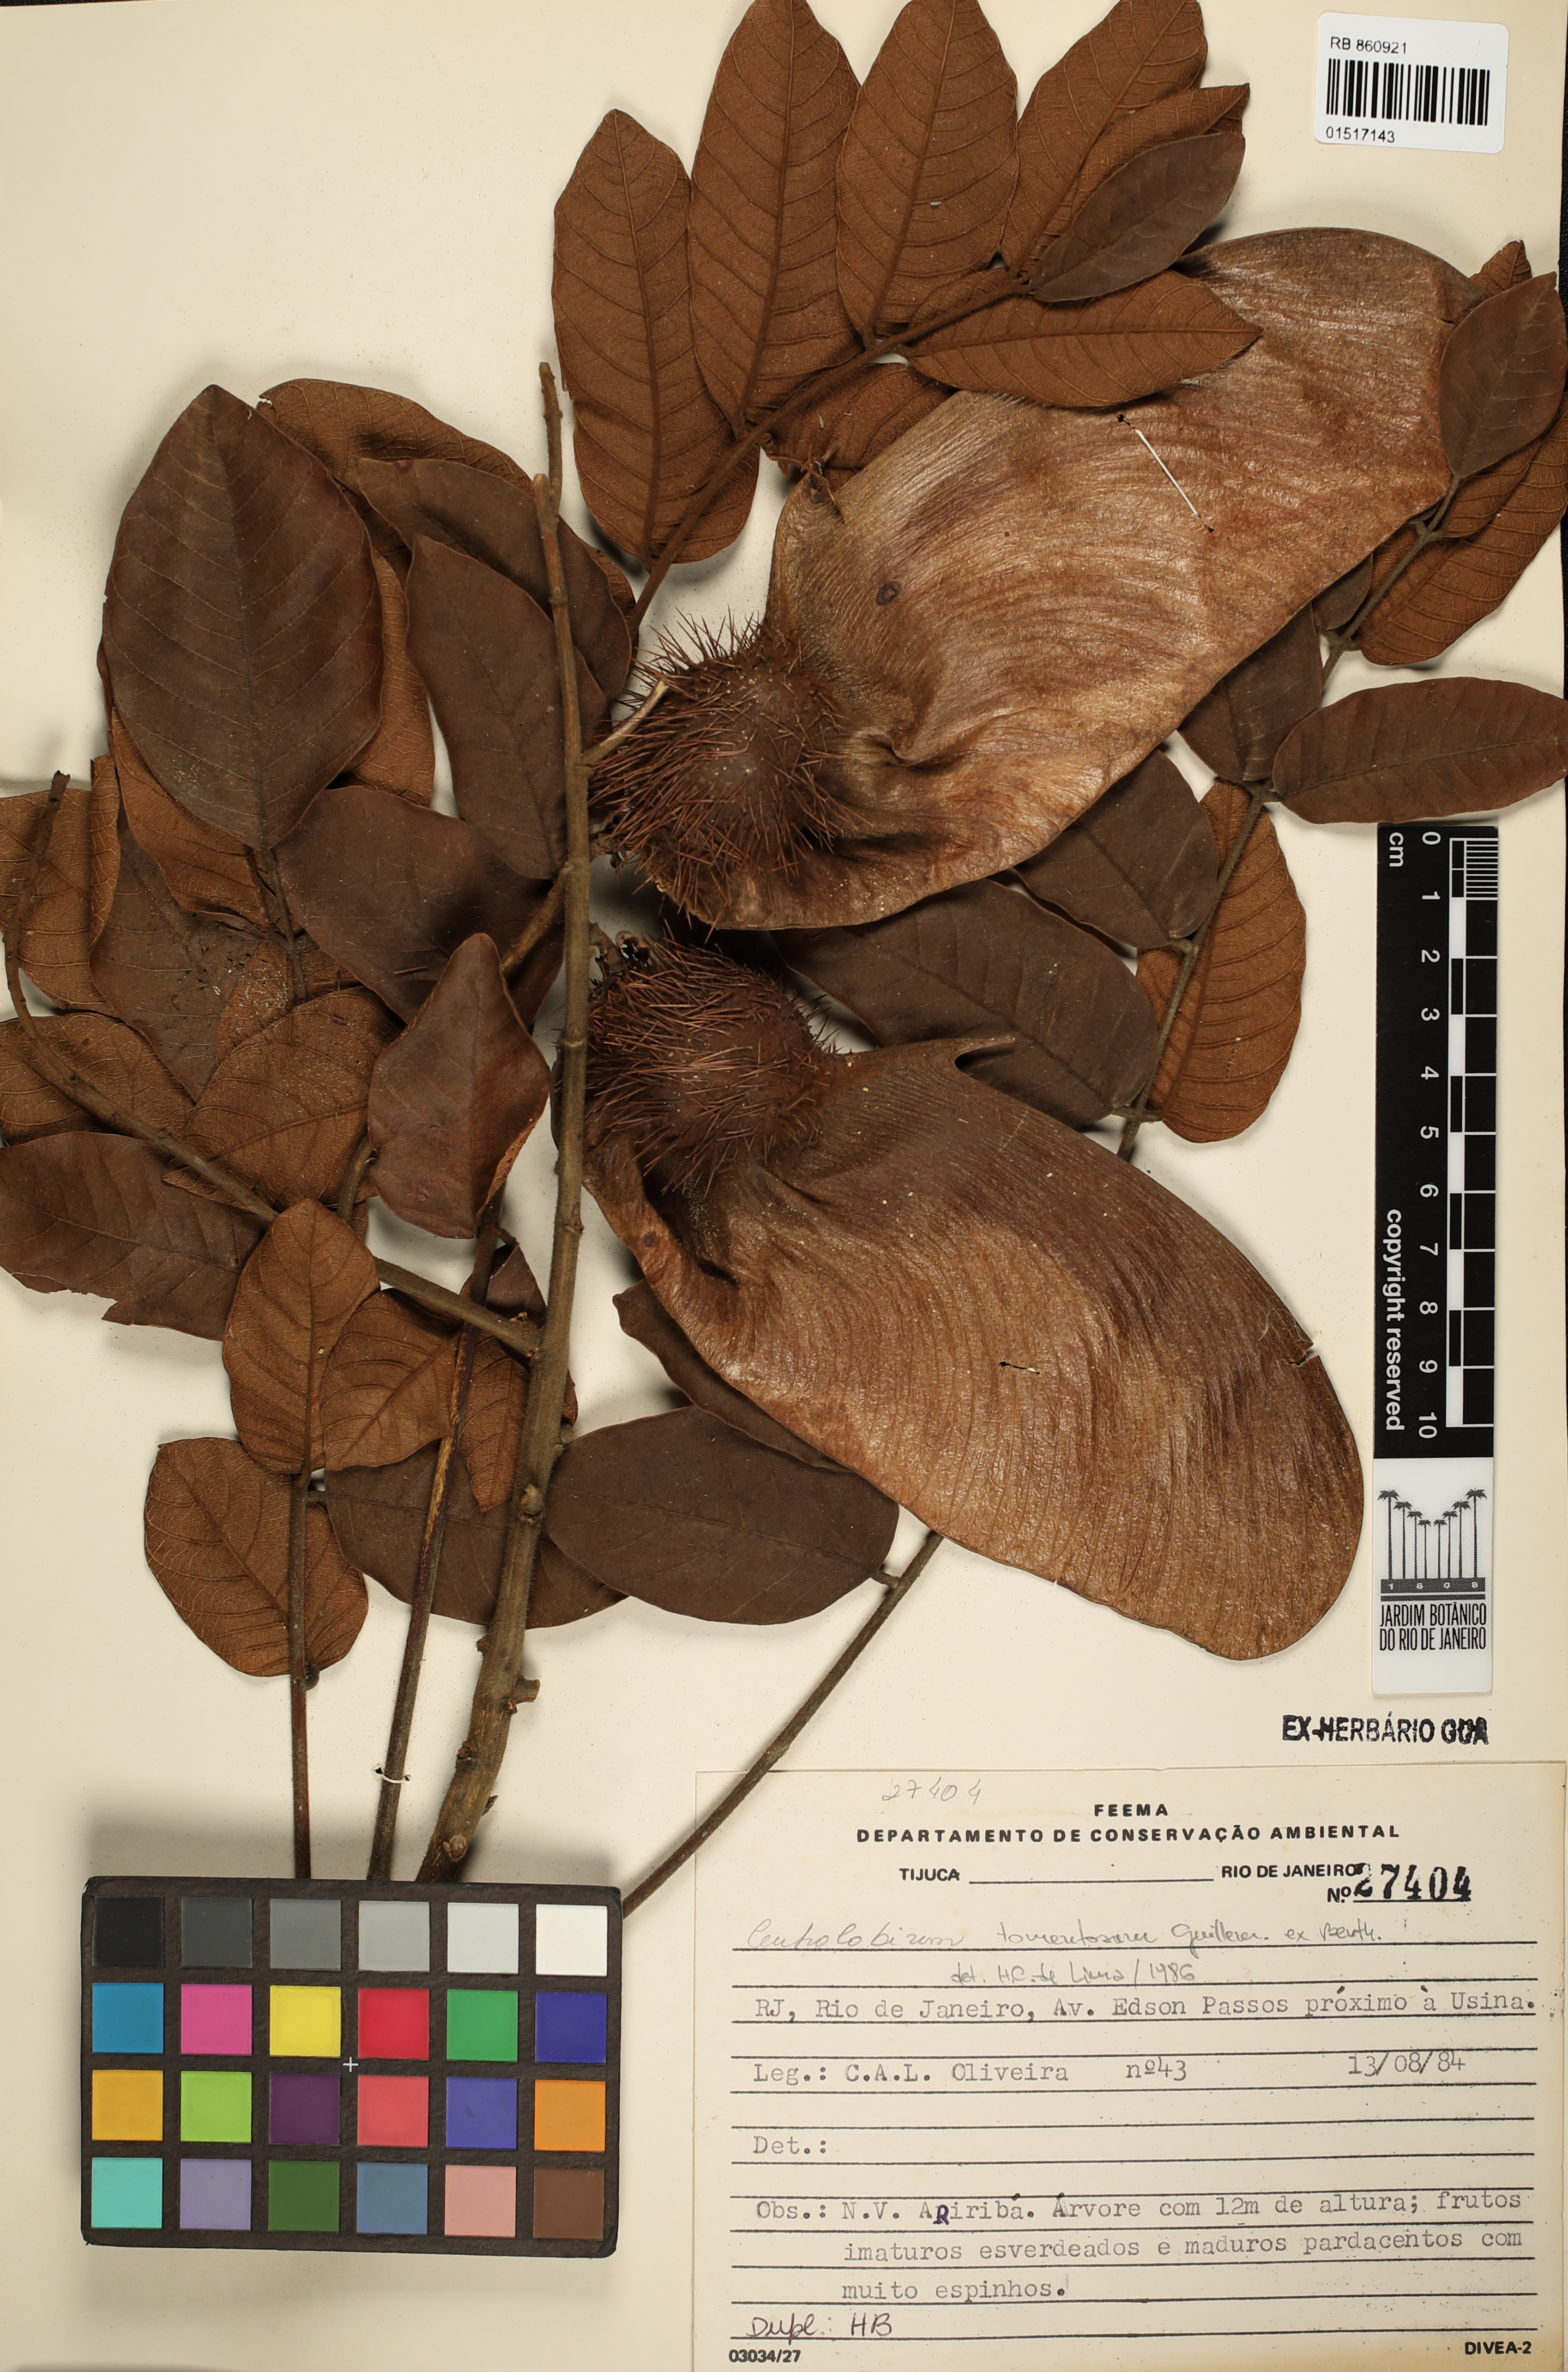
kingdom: Plantae
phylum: Tracheophyta
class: Magnoliopsida
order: Fabales
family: Fabaceae
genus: Centrolobium
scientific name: Centrolobium tomentosum
